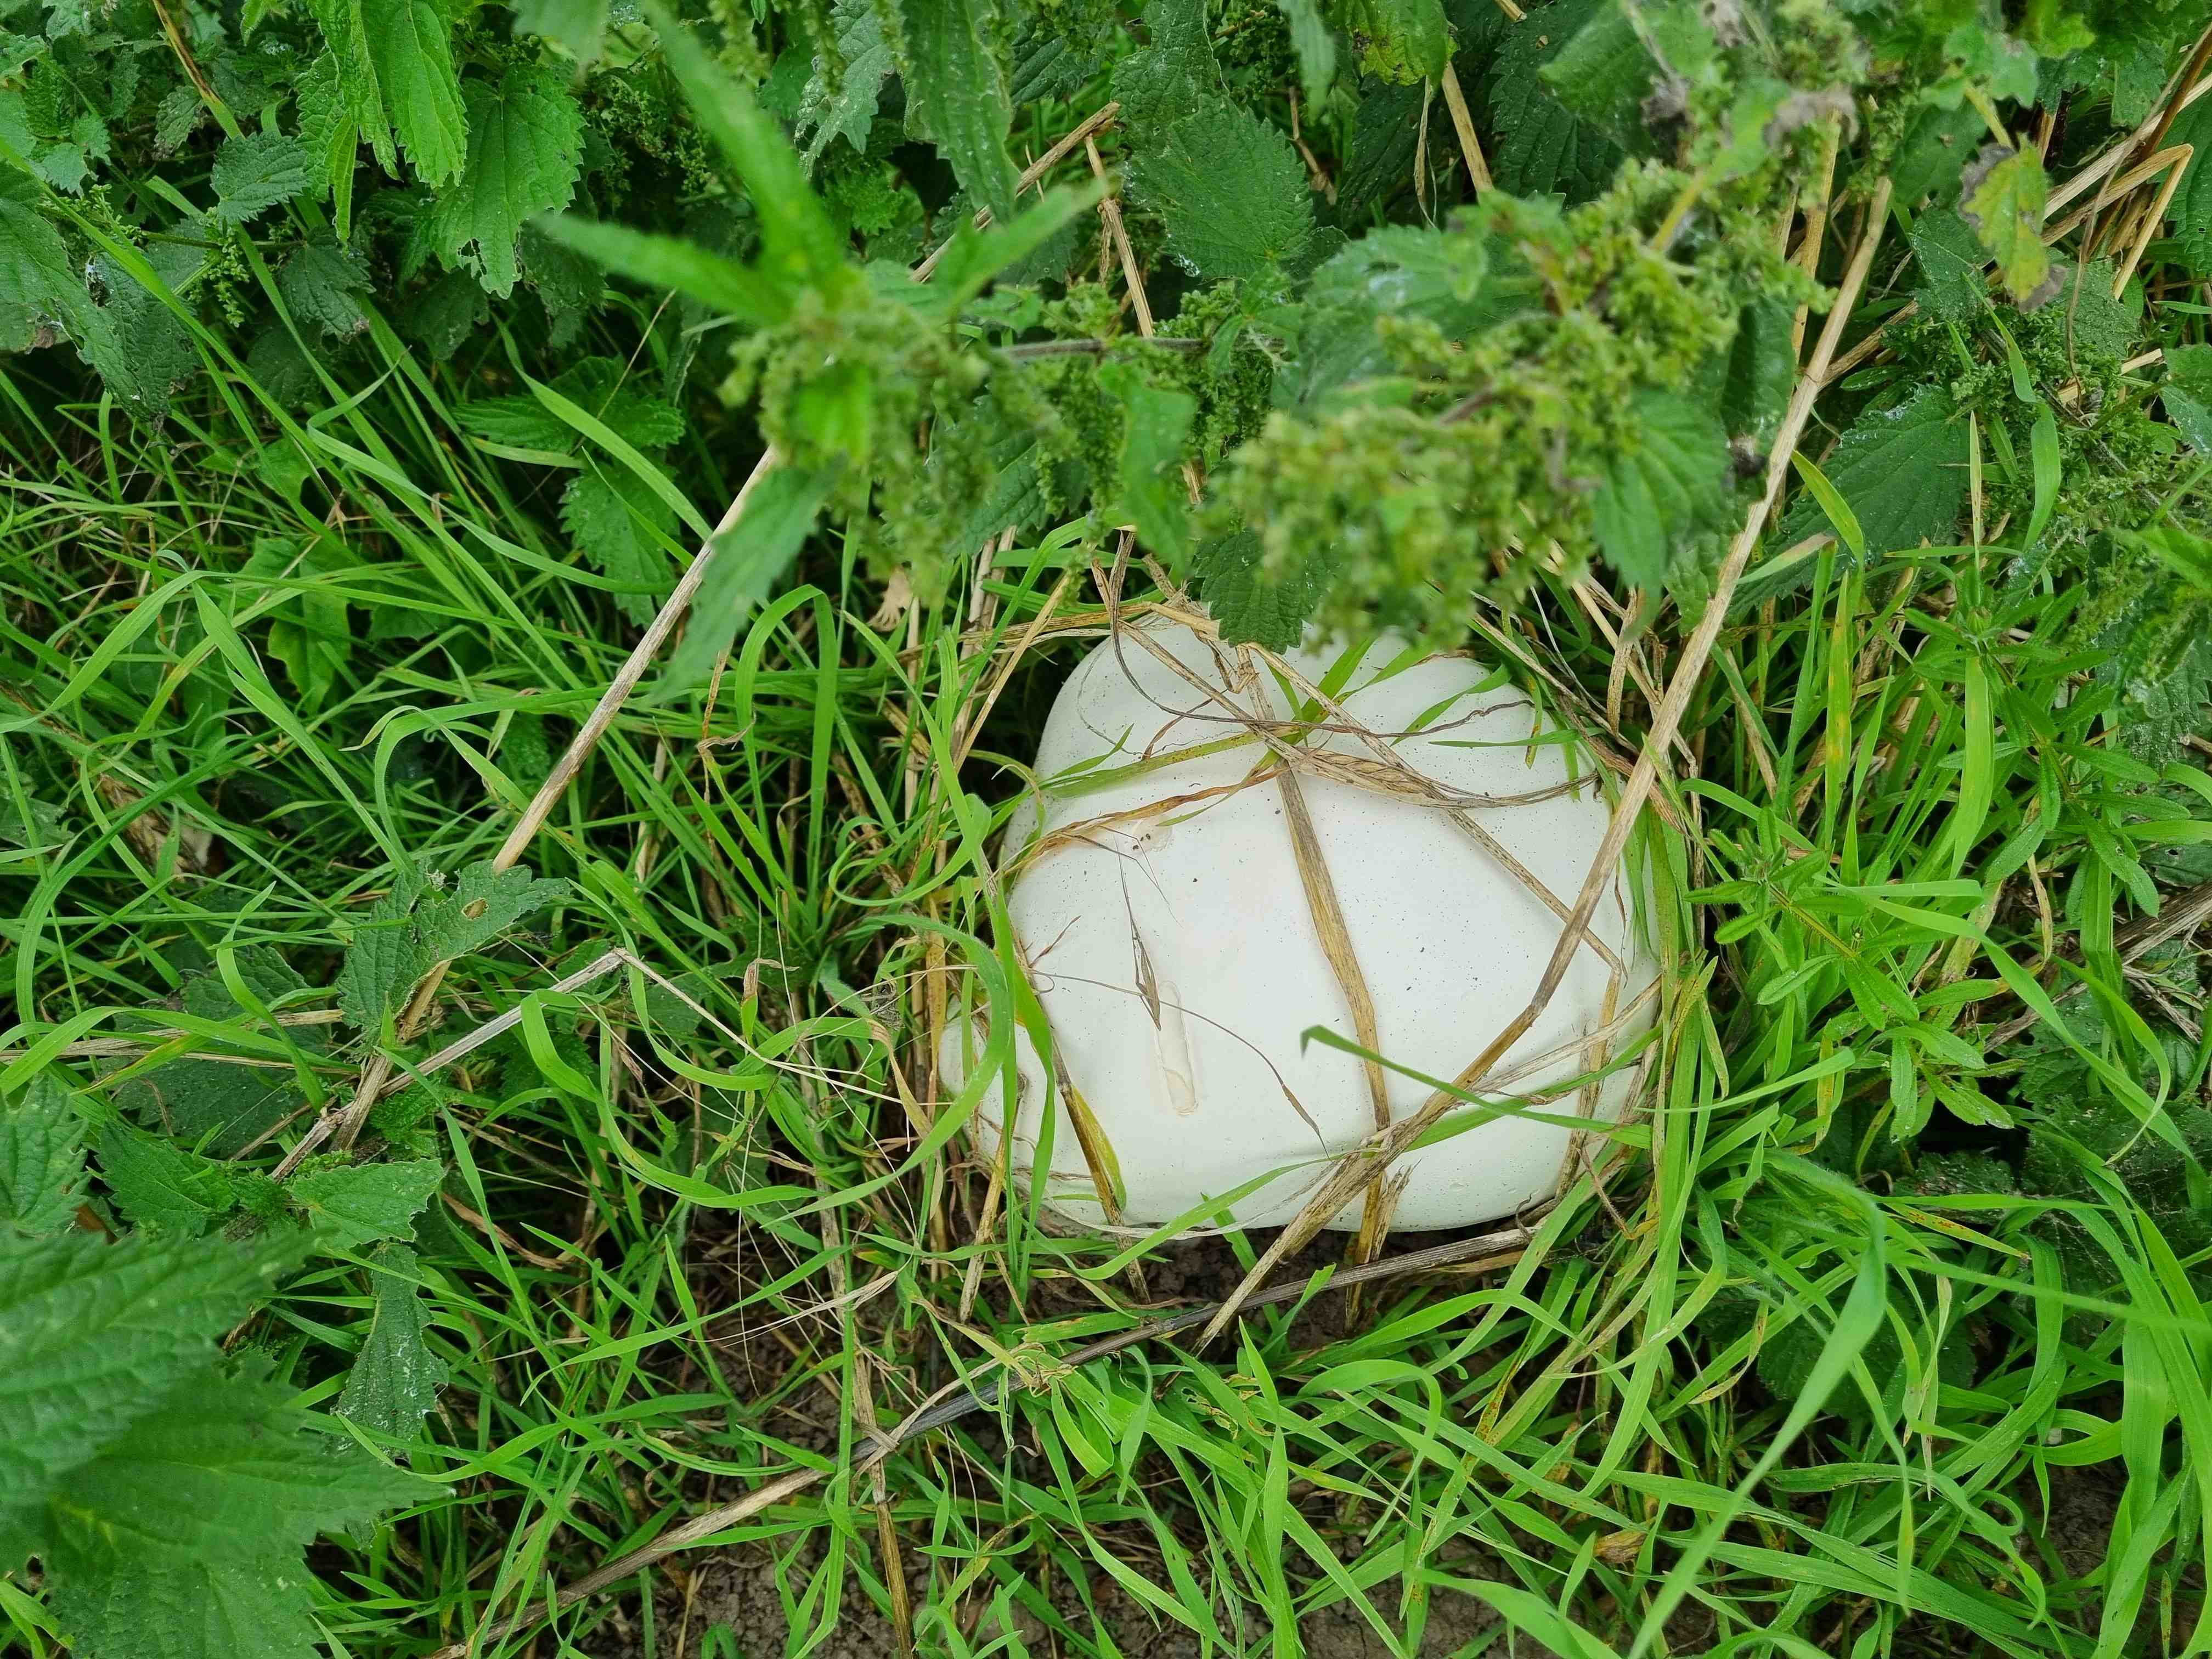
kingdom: Fungi
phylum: Basidiomycota
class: Agaricomycetes
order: Agaricales
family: Lycoperdaceae
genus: Calvatia
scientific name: Calvatia gigantea
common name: kæmpestøvbold
